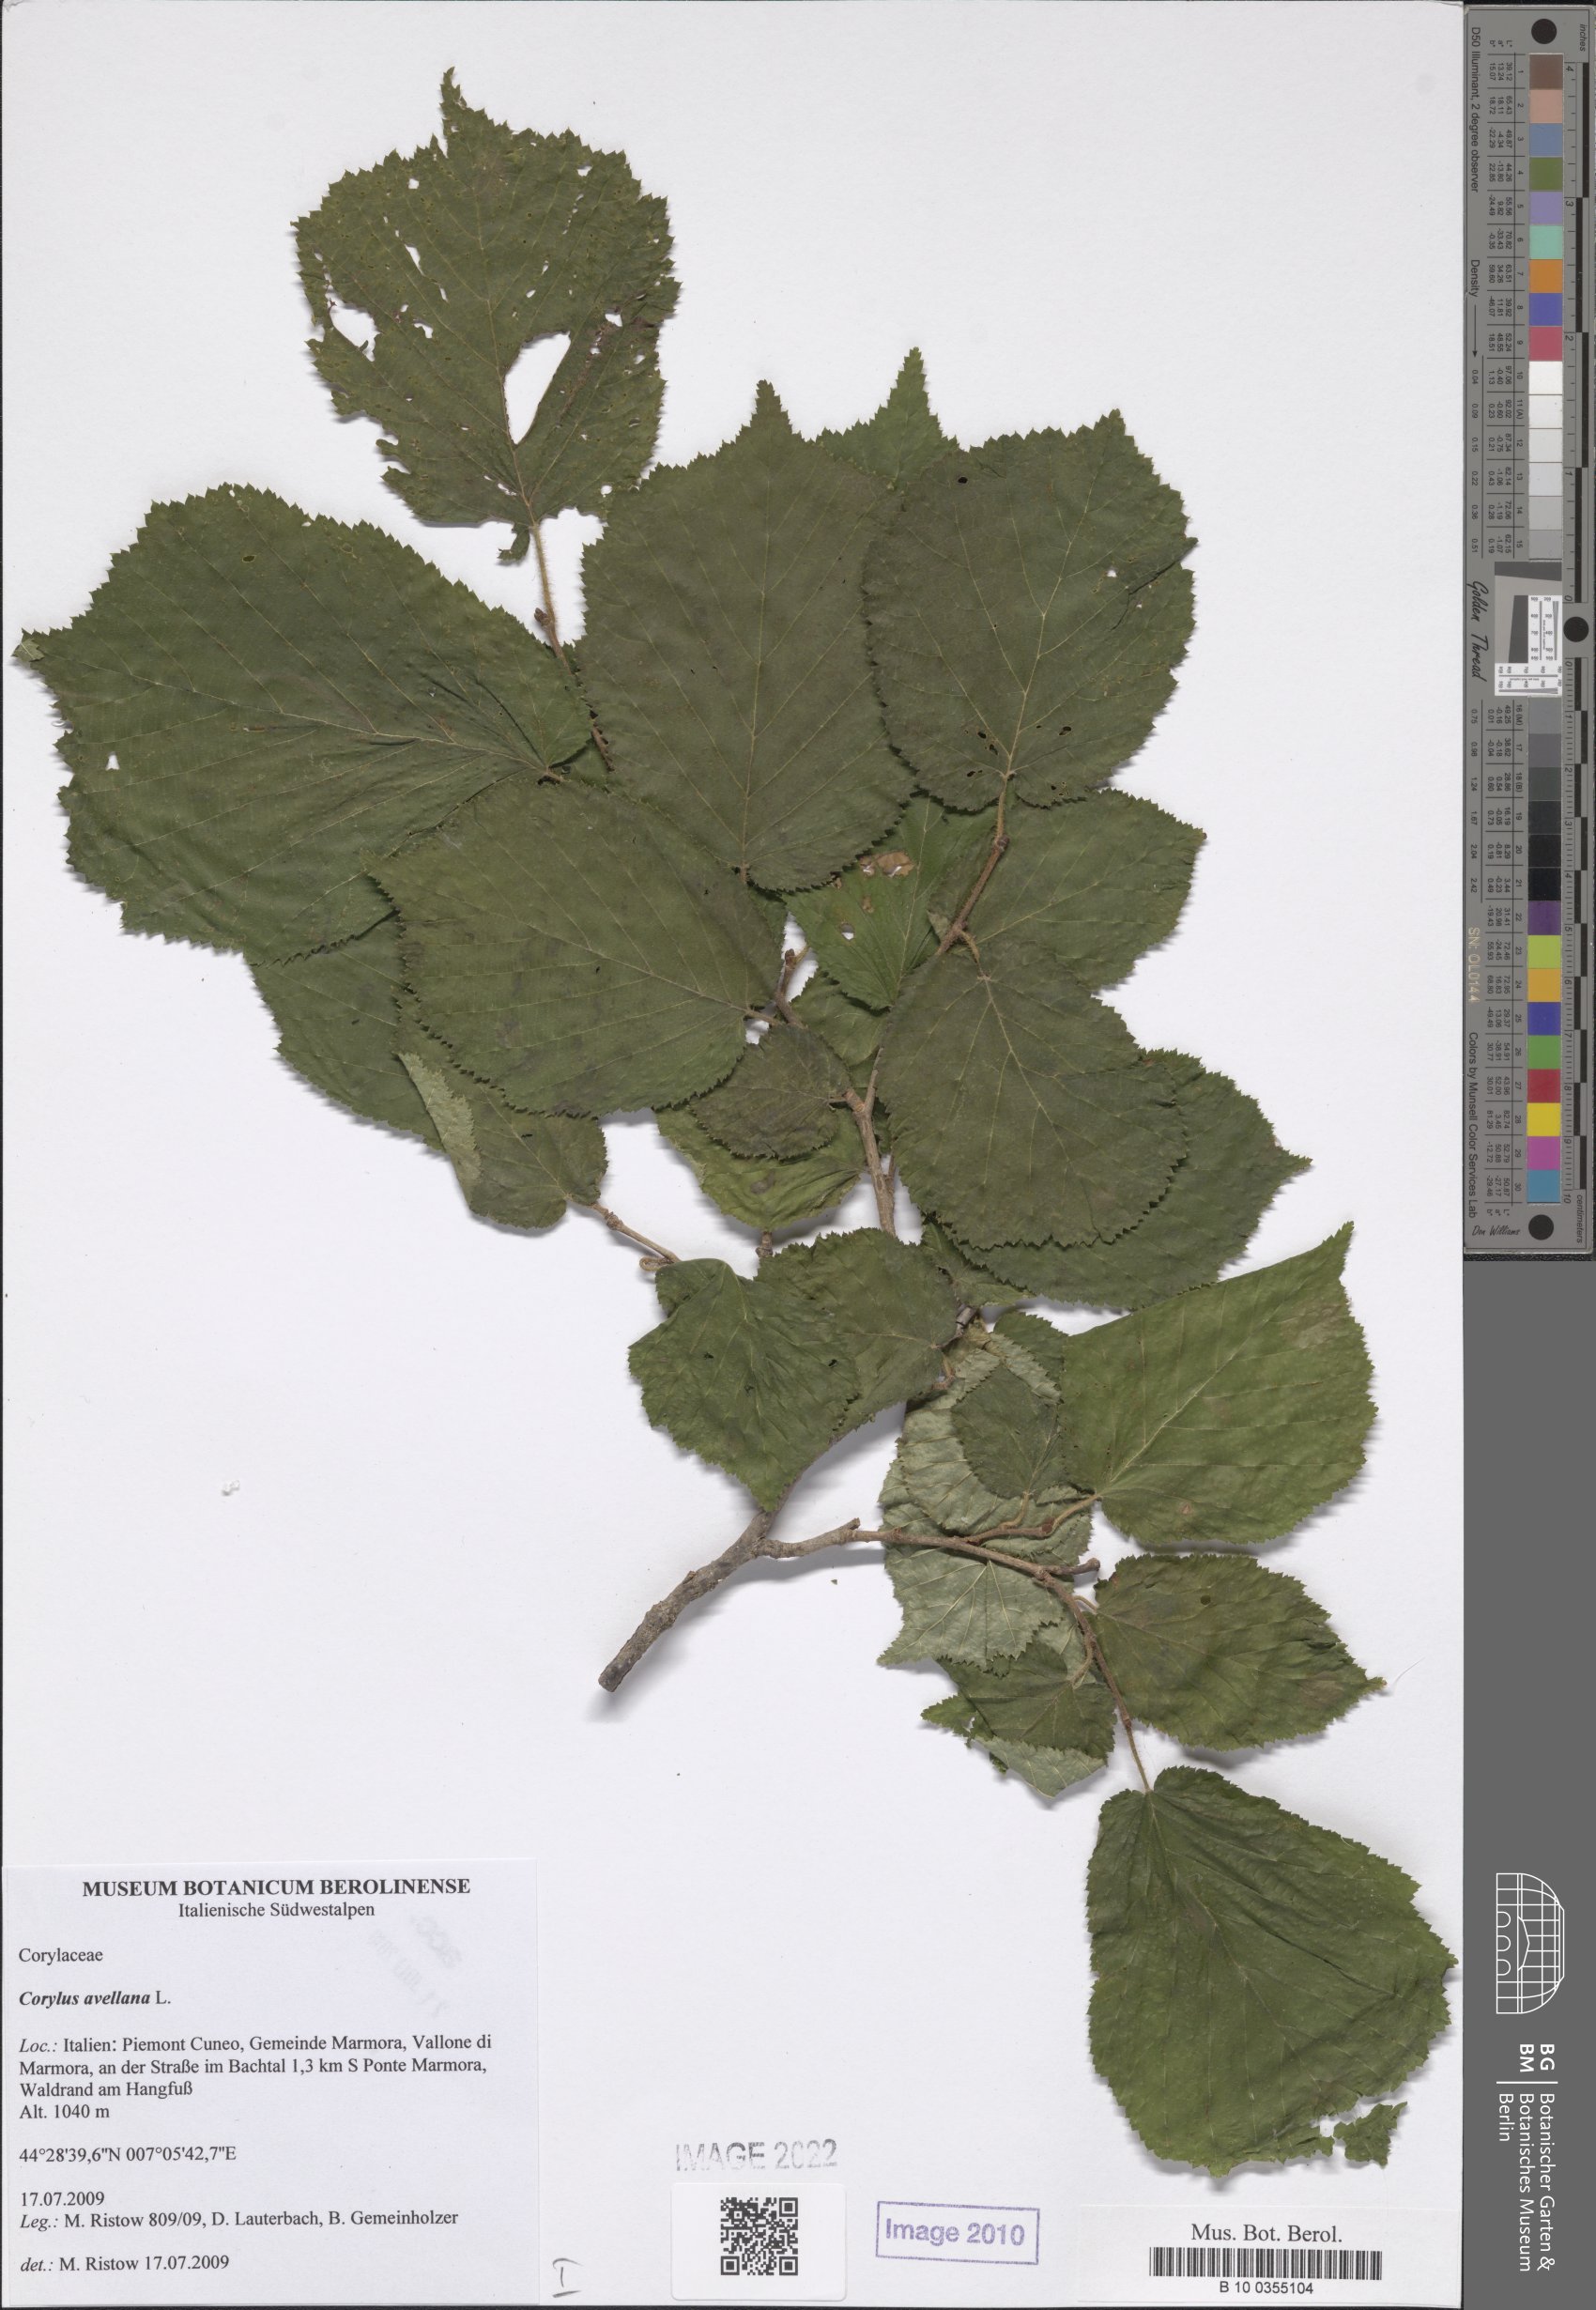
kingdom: Plantae
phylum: Tracheophyta
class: Magnoliopsida
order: Fagales
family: Betulaceae
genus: Corylus
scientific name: Corylus avellana
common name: European hazel
